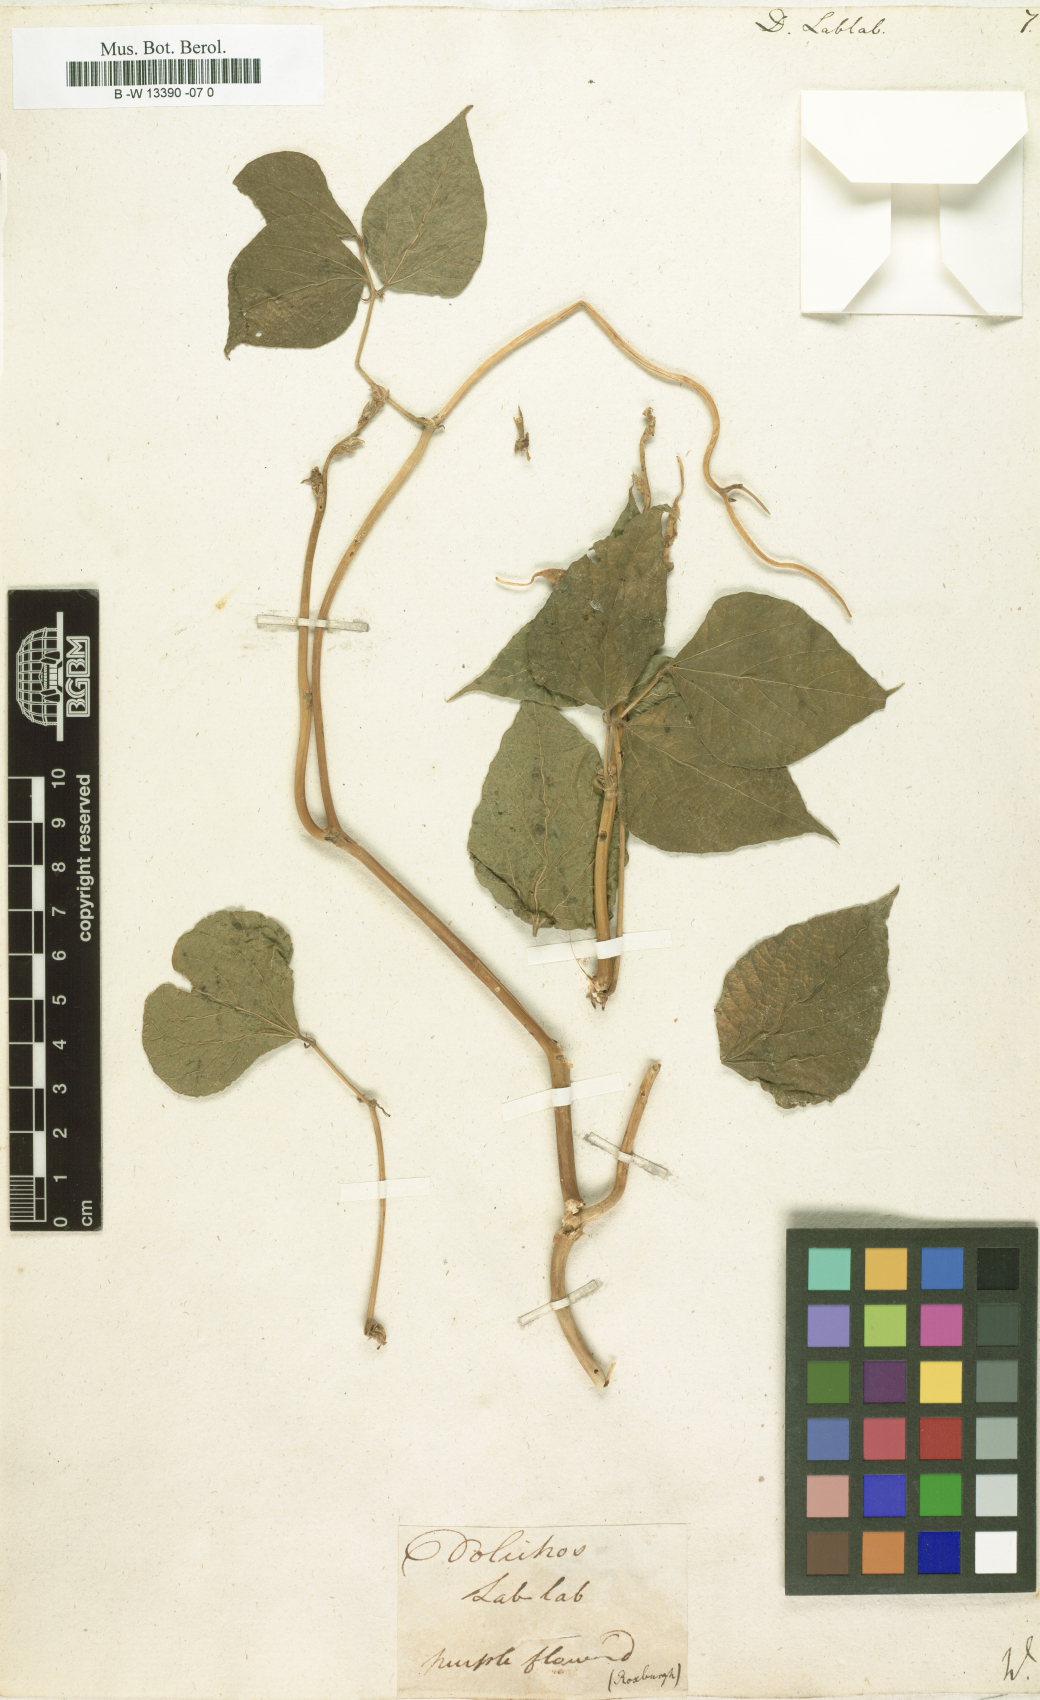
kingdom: Plantae
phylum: Tracheophyta
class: Magnoliopsida
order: Fabales
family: Fabaceae
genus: Lablab
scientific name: Lablab purpureus
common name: Lablab-bean
